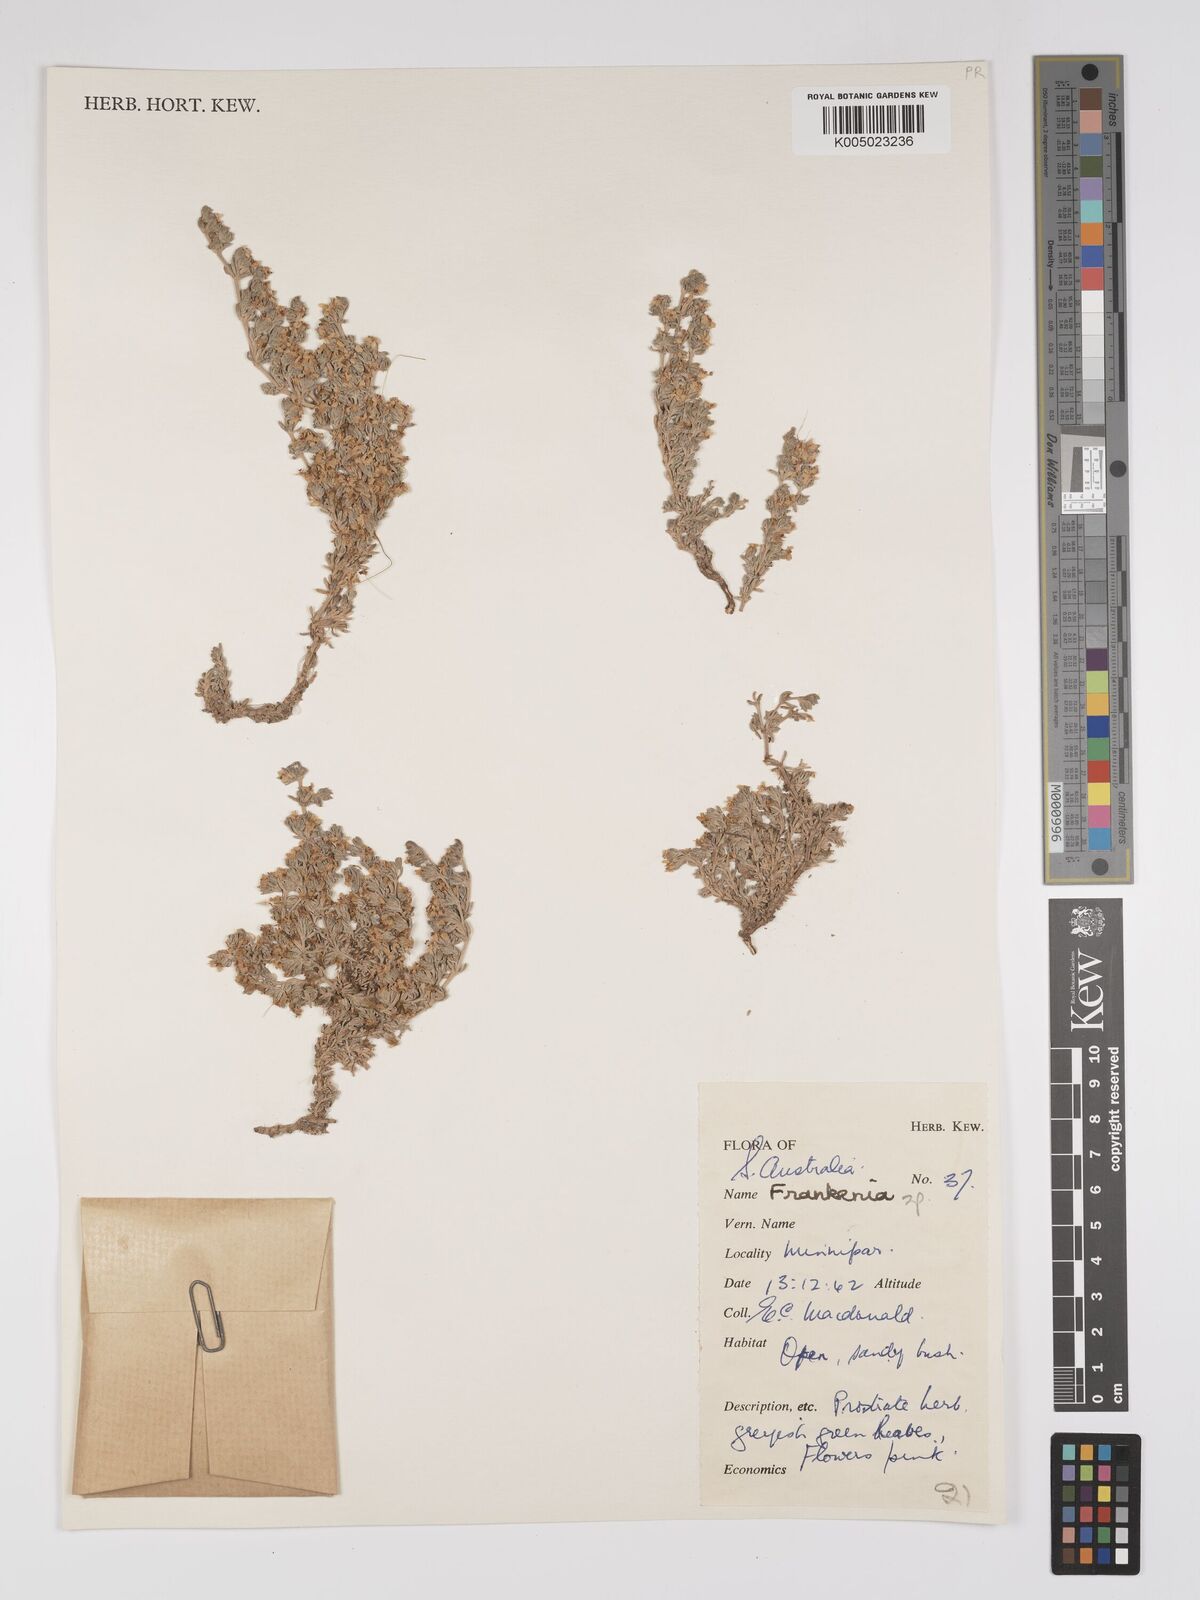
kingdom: Plantae
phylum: Tracheophyta
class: Magnoliopsida
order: Caryophyllales
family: Frankeniaceae
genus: Frankenia
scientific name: Frankenia
